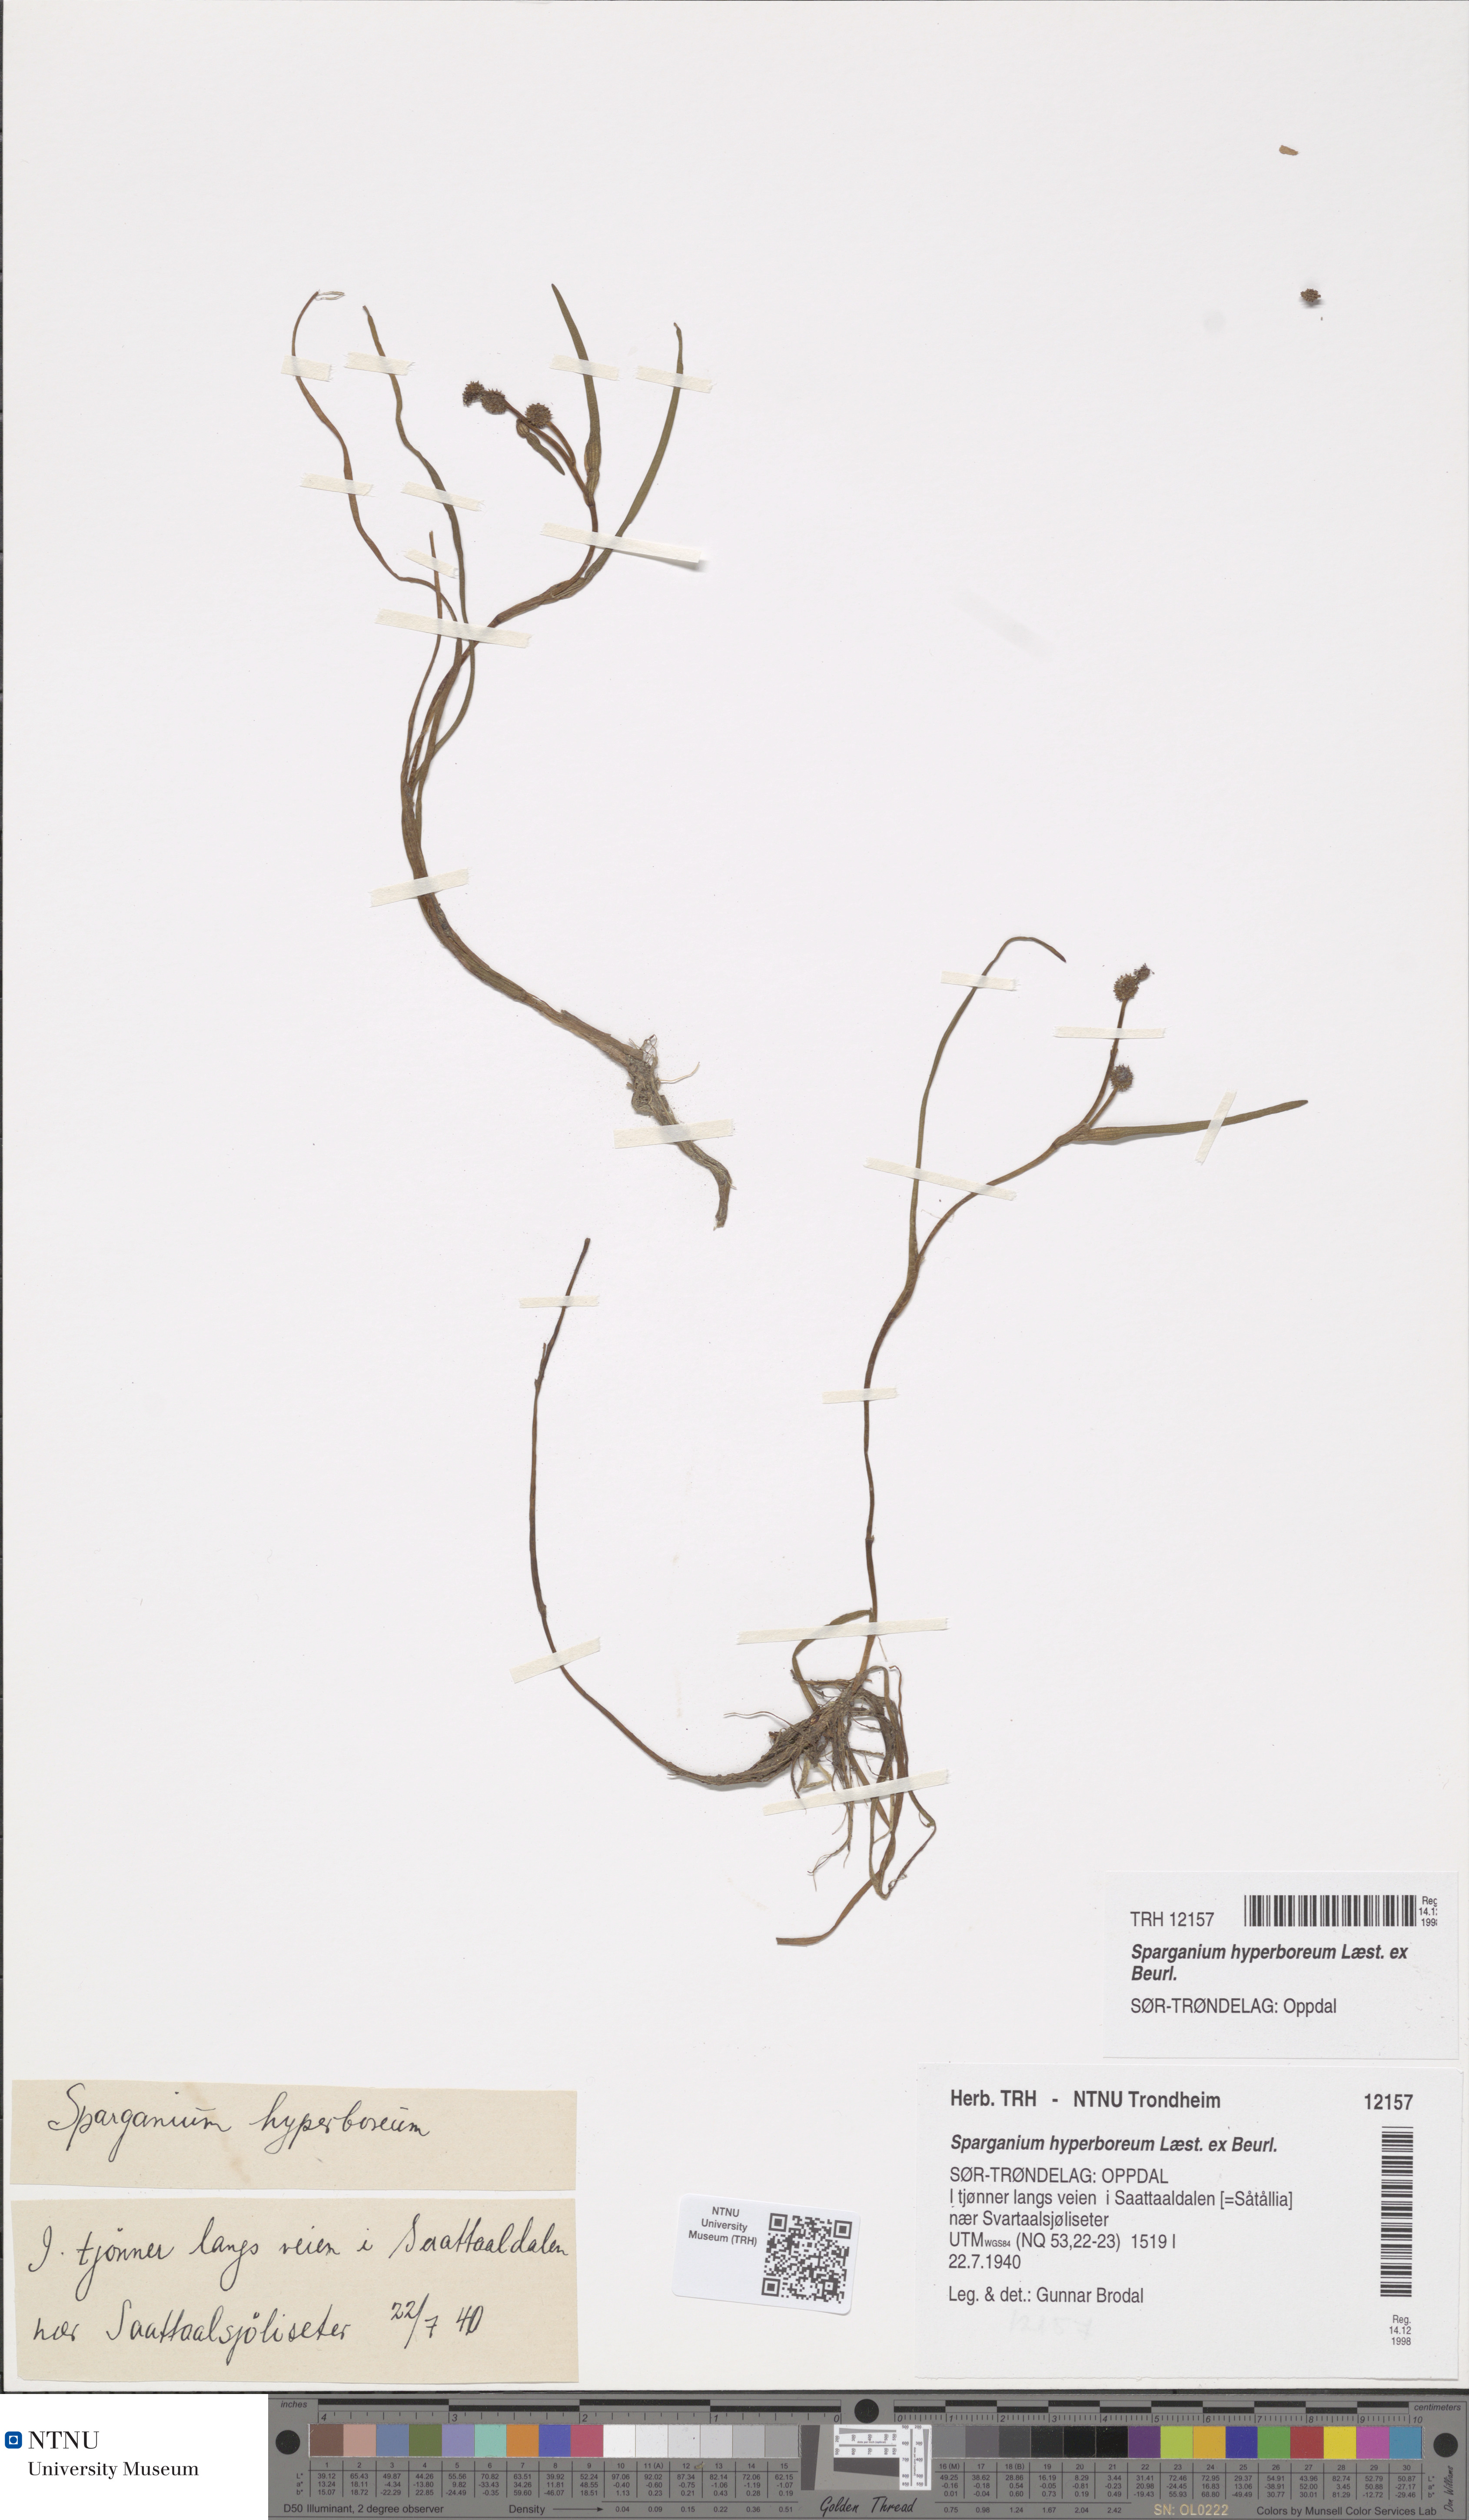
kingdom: Plantae
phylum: Tracheophyta
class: Liliopsida
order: Poales
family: Typhaceae
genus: Sparganium
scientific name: Sparganium hyperboreum
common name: Arctic burreed
